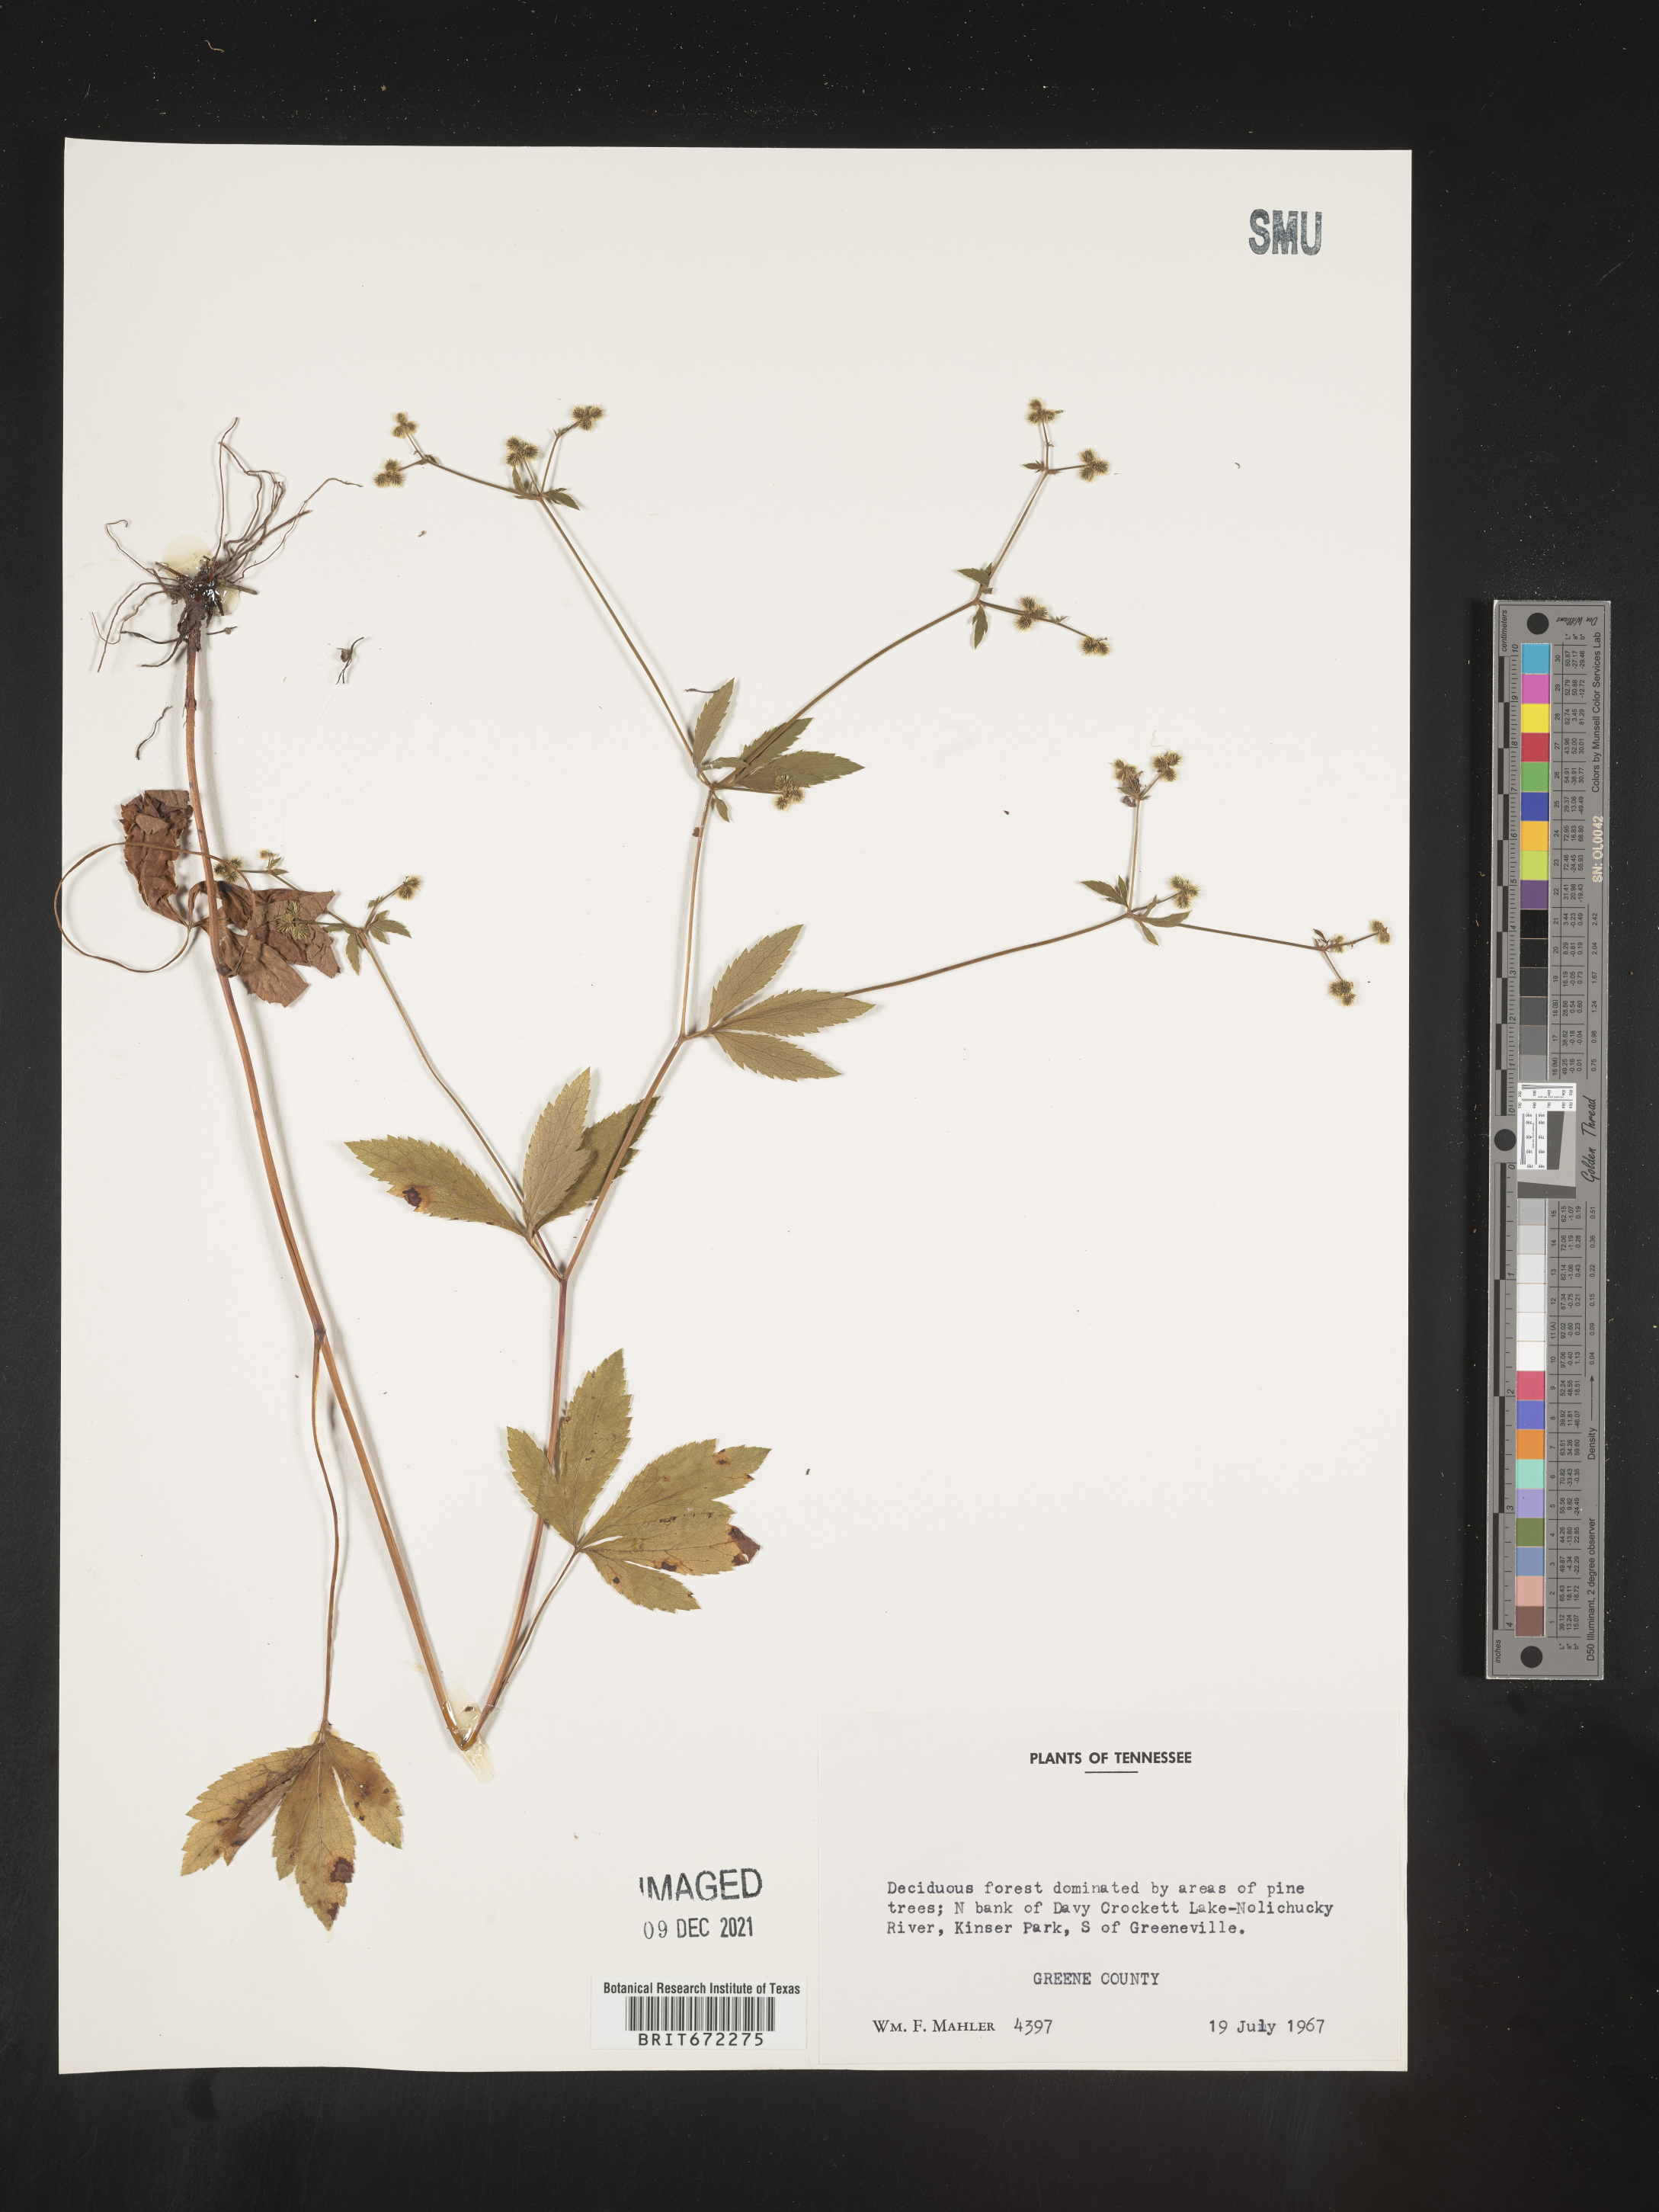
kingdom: Plantae
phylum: Tracheophyta
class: Magnoliopsida
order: Apiales
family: Apiaceae
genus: Sanicula
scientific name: Sanicula
